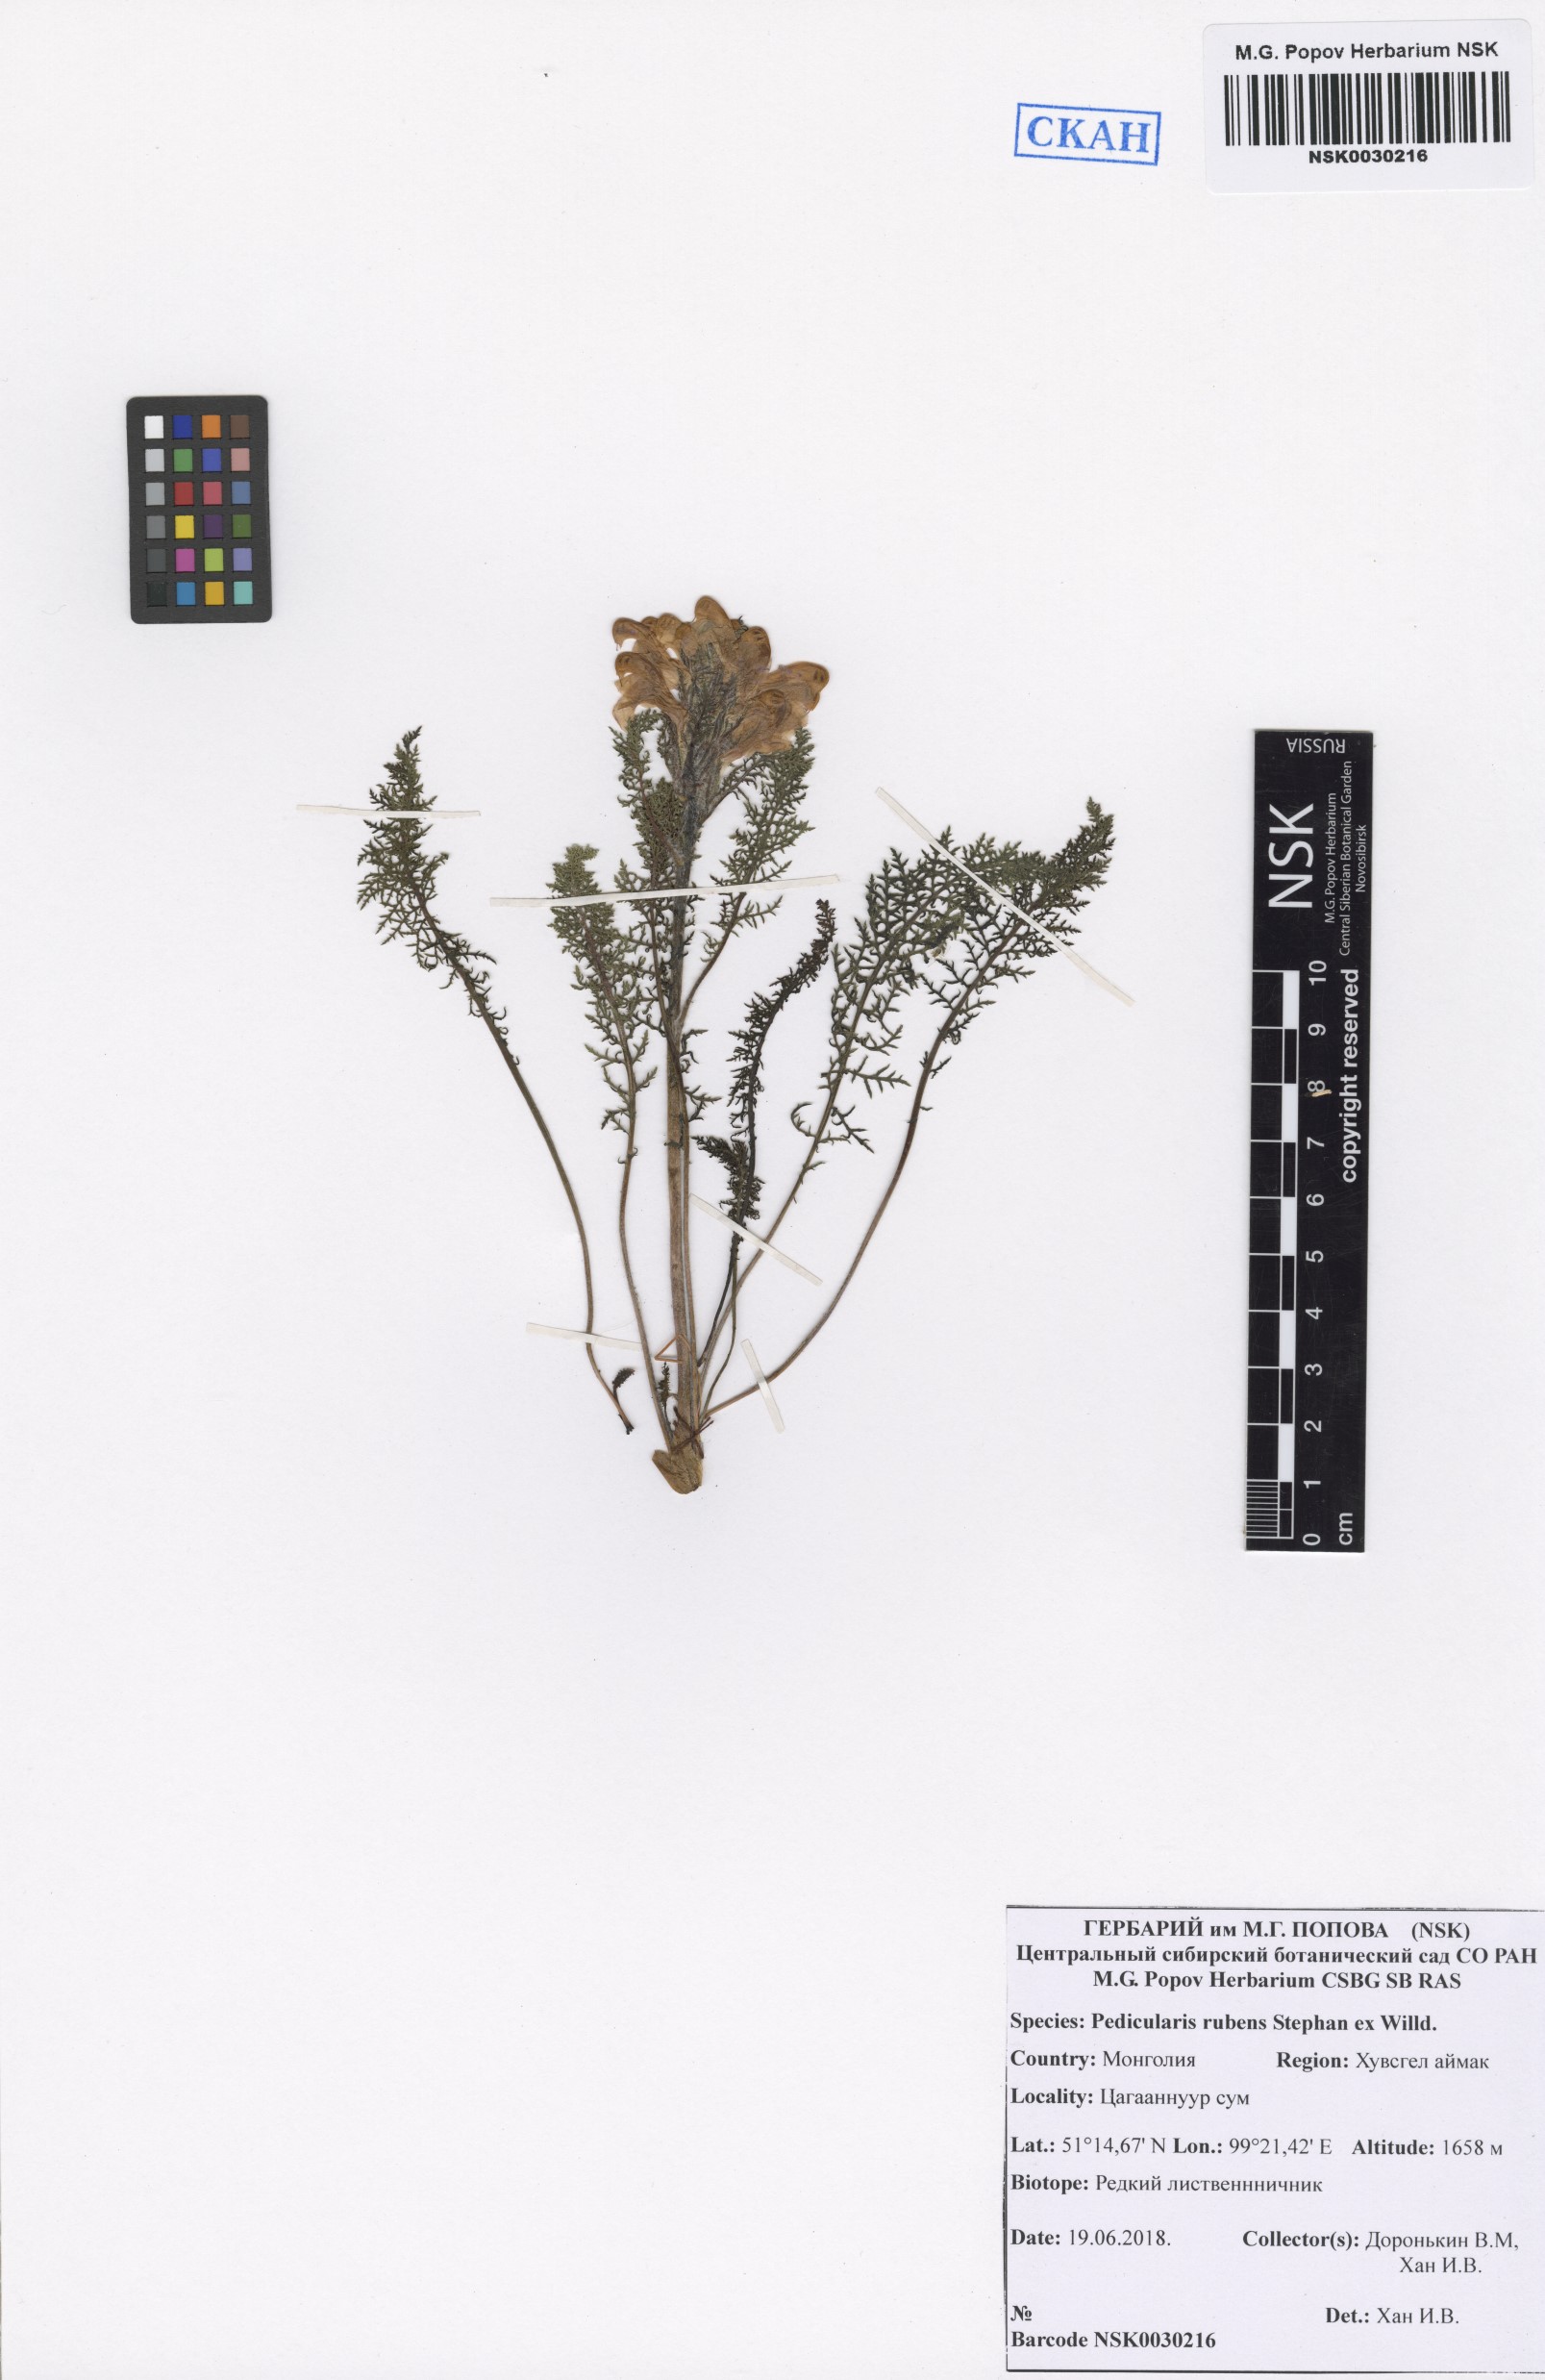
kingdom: Plantae
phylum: Tracheophyta
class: Magnoliopsida
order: Lamiales
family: Orobanchaceae
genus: Pedicularis
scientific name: Pedicularis rubens
